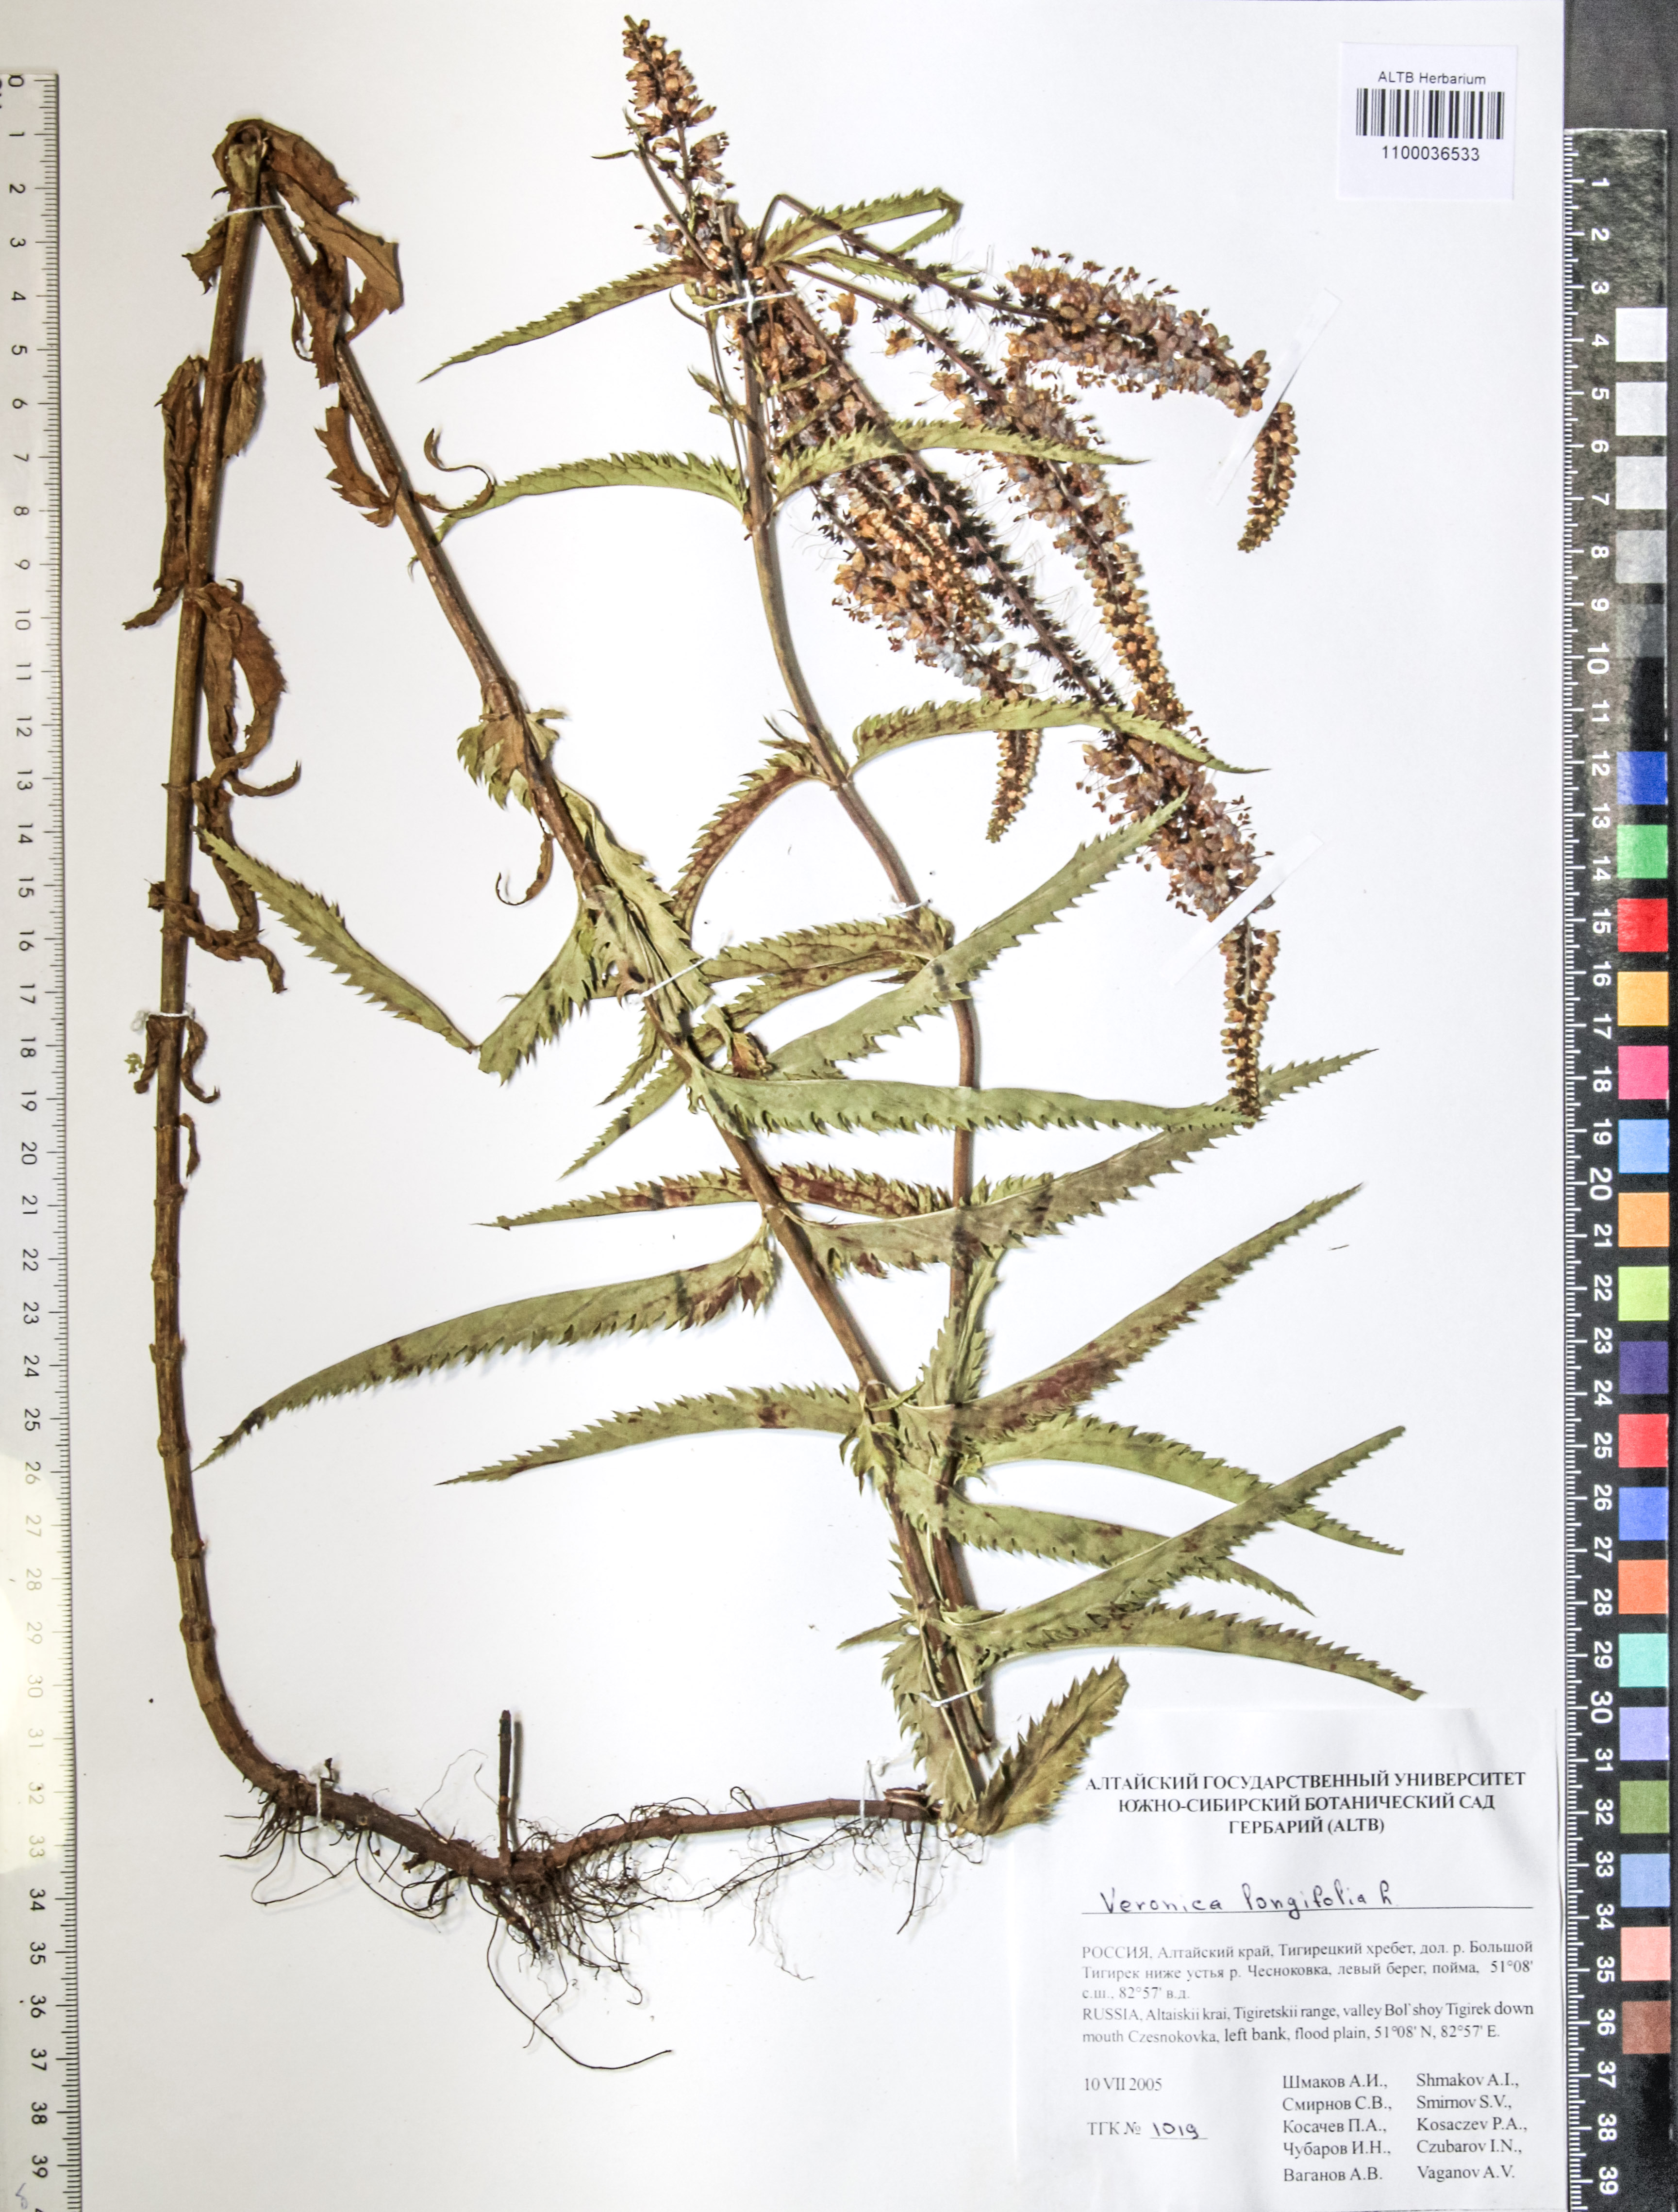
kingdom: Plantae
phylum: Tracheophyta
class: Magnoliopsida
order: Lamiales
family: Plantaginaceae
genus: Veronica
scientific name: Veronica longifolia
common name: Garden speedwell
